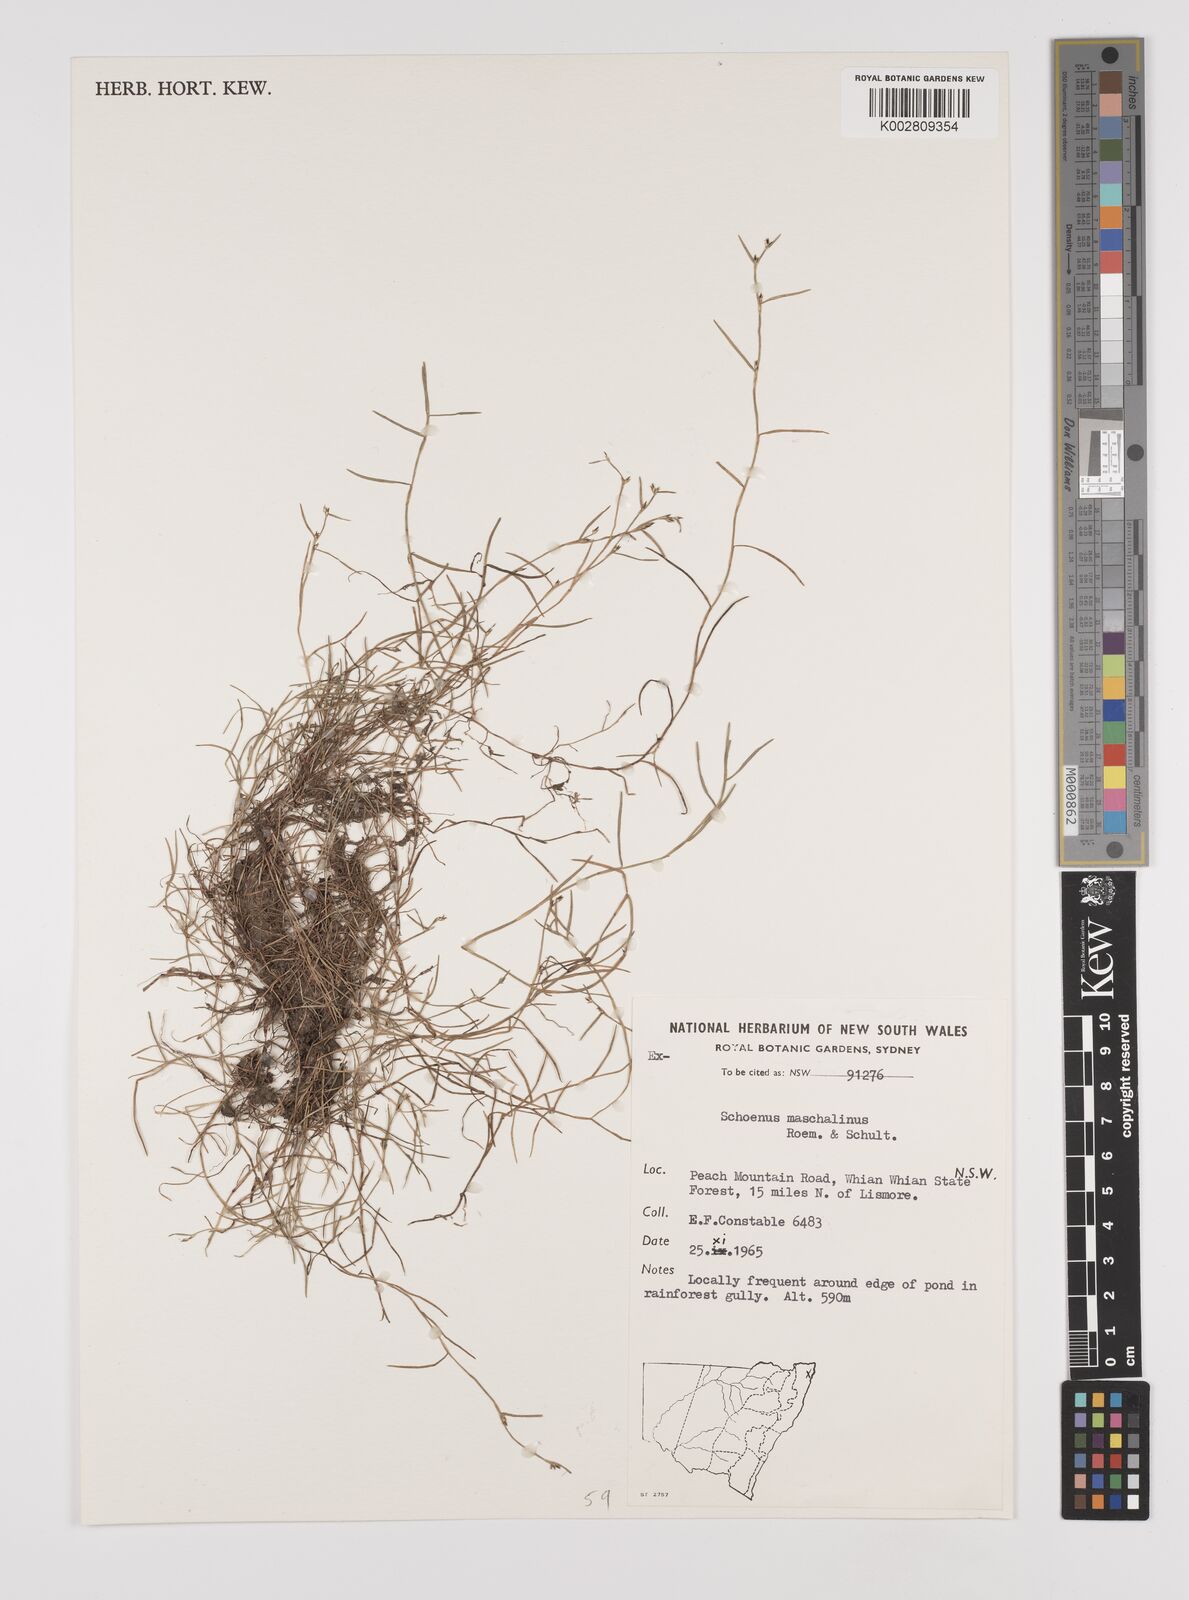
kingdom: Plantae
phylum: Tracheophyta
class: Liliopsida
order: Poales
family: Cyperaceae
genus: Schoenus
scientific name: Schoenus maschalinus
